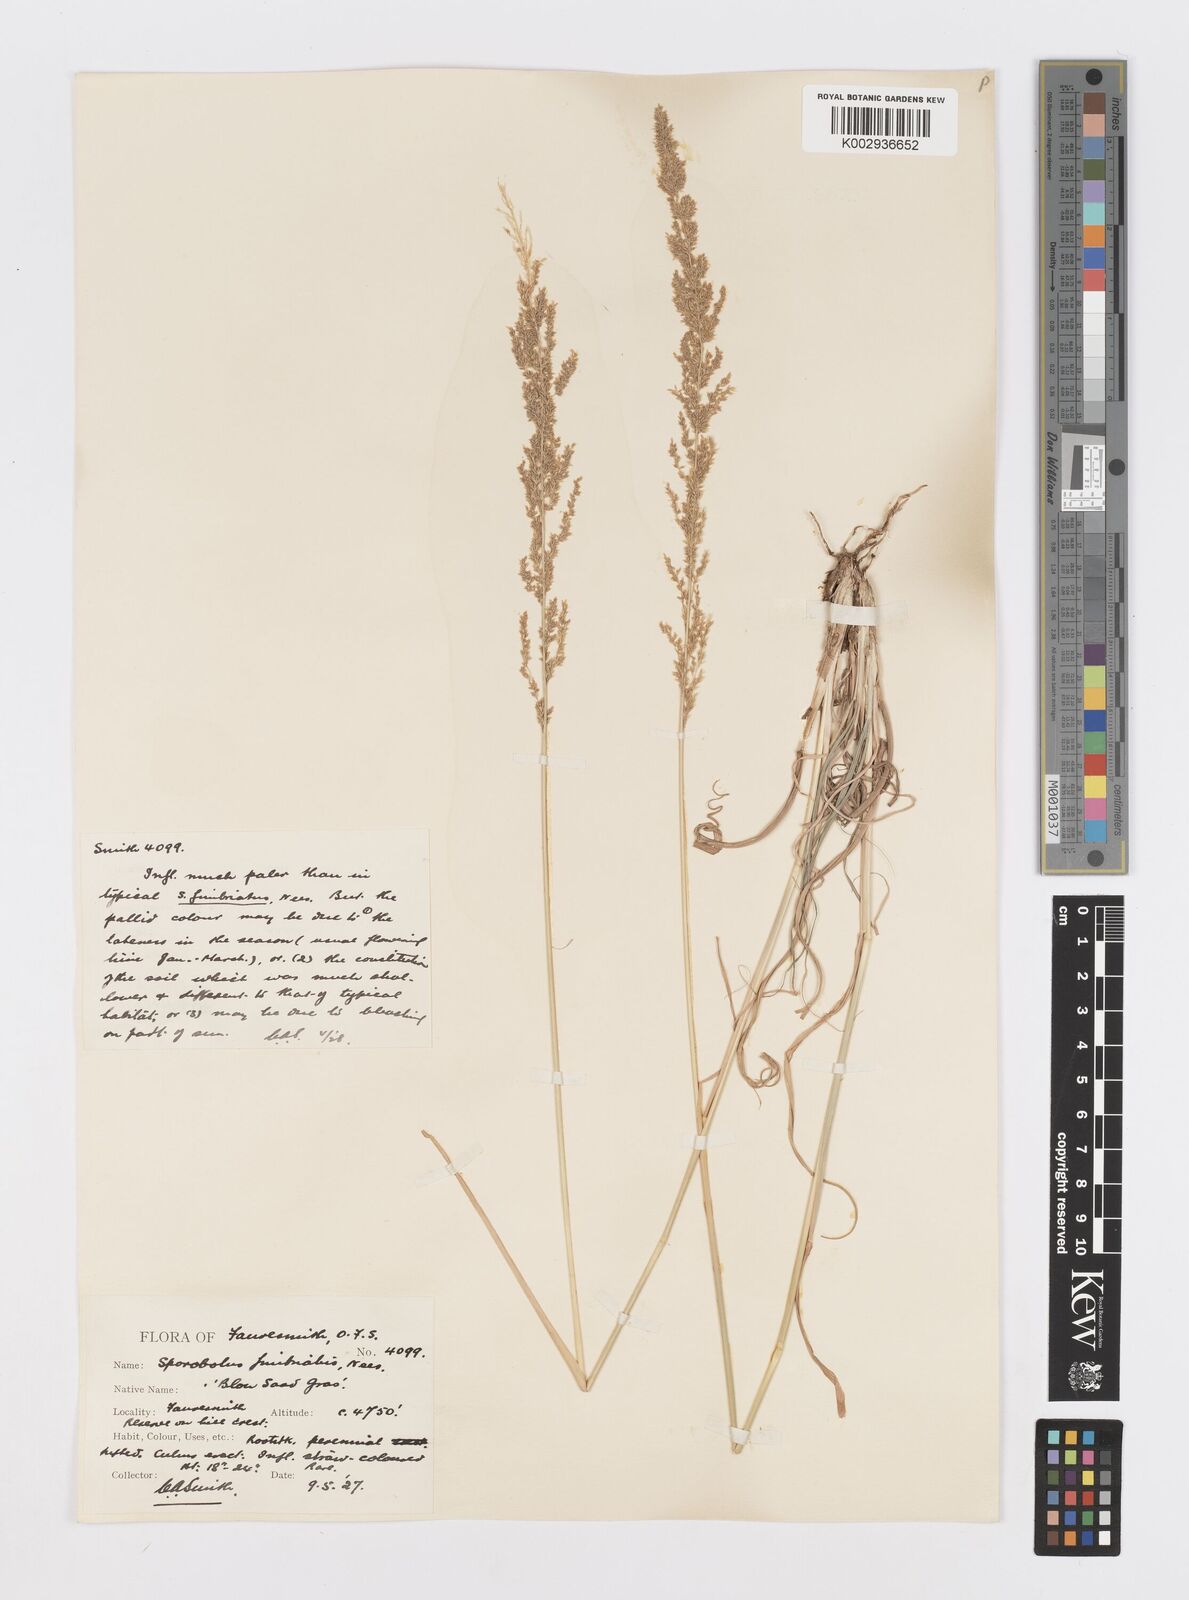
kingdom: Plantae
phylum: Tracheophyta
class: Liliopsida
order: Poales
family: Poaceae
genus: Sporobolus
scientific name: Sporobolus fimbriatus
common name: Fringed dropseed
